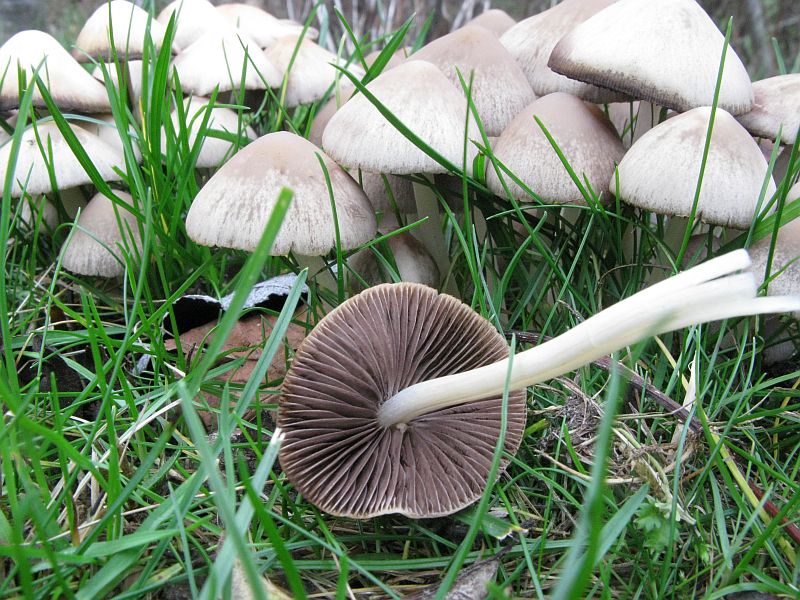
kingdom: Fungi
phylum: Basidiomycota
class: Agaricomycetes
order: Agaricales
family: Psathyrellaceae
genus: Britzelmayria
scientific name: Britzelmayria multipedata
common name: knippe-mørkhat
